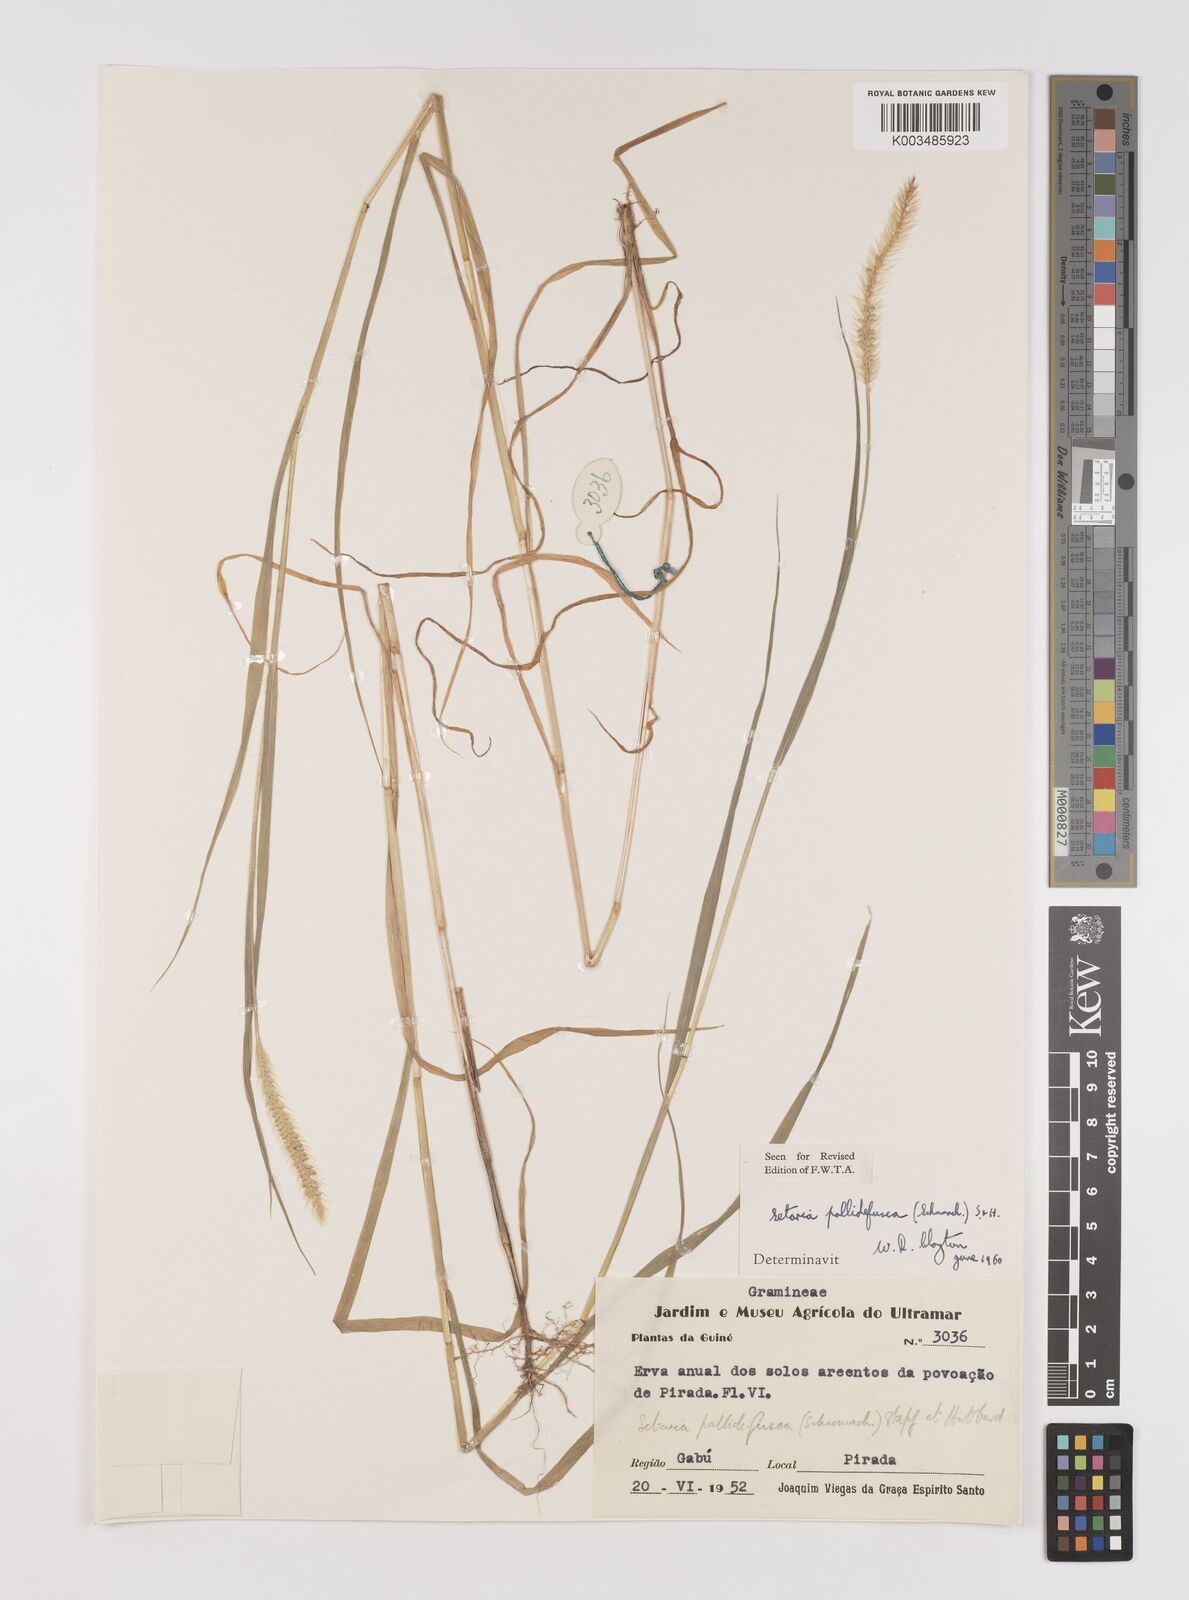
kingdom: Plantae
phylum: Tracheophyta
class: Liliopsida
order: Poales
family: Poaceae
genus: Setaria
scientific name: Setaria pumila
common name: Yellow bristle-grass
